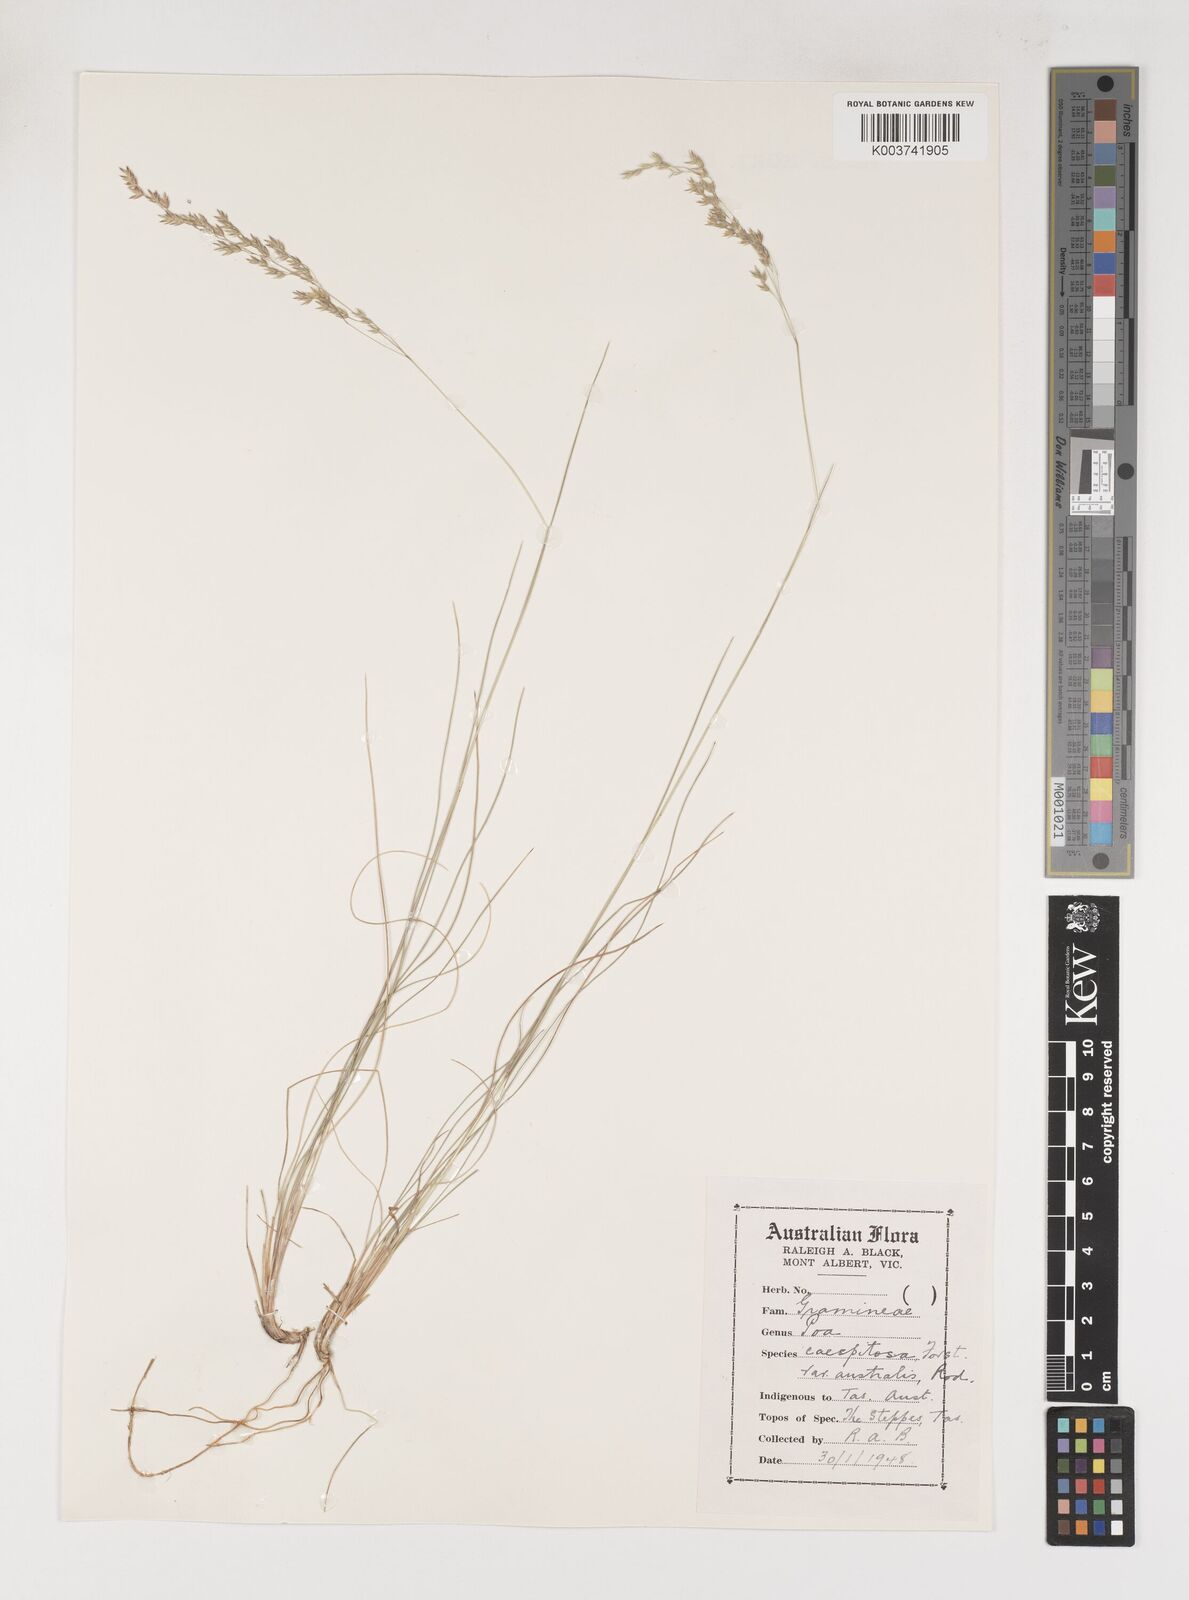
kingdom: Plantae
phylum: Tracheophyta
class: Liliopsida
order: Poales
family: Poaceae
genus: Poa
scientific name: Poa sieberiana
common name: Tussock poa
